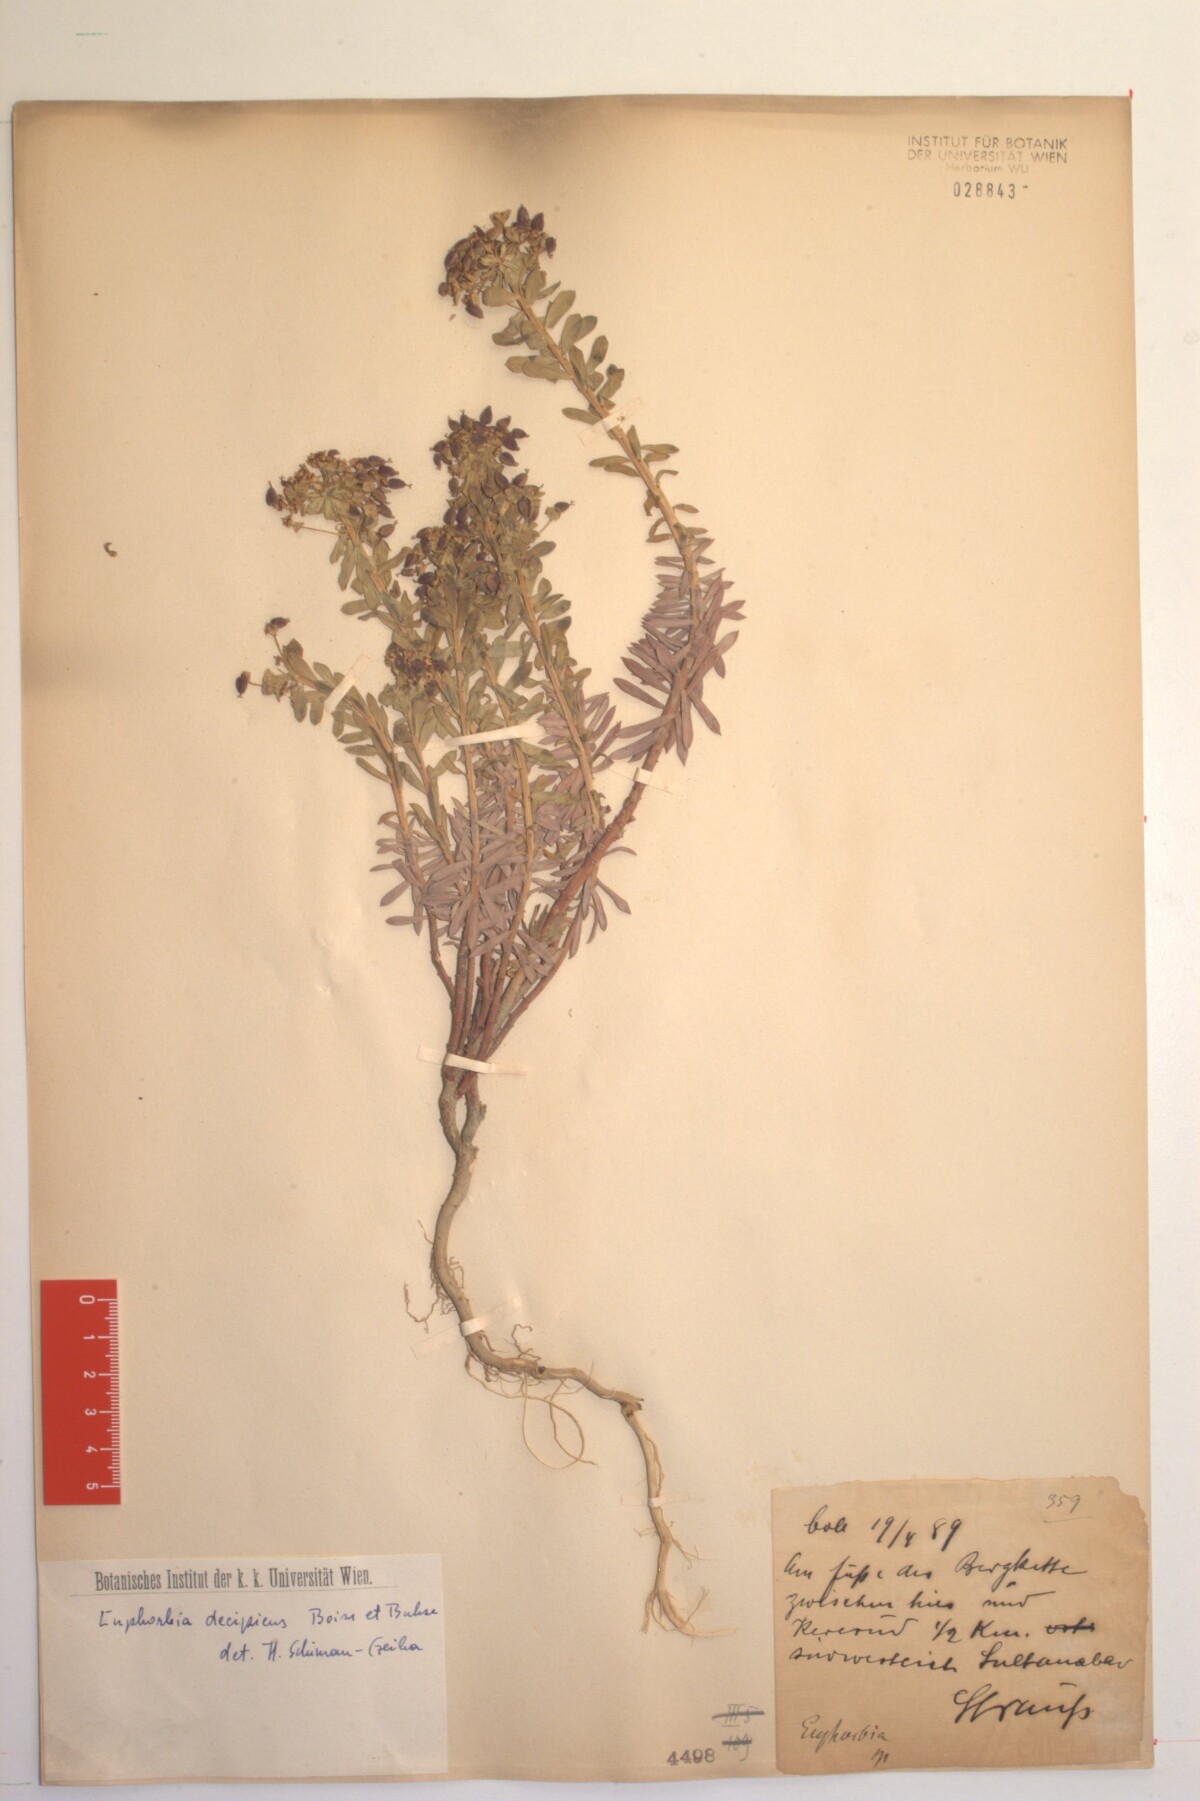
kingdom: Plantae
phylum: Tracheophyta
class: Magnoliopsida
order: Malpighiales
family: Euphorbiaceae
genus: Euphorbia
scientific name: Euphorbia polycaulis
